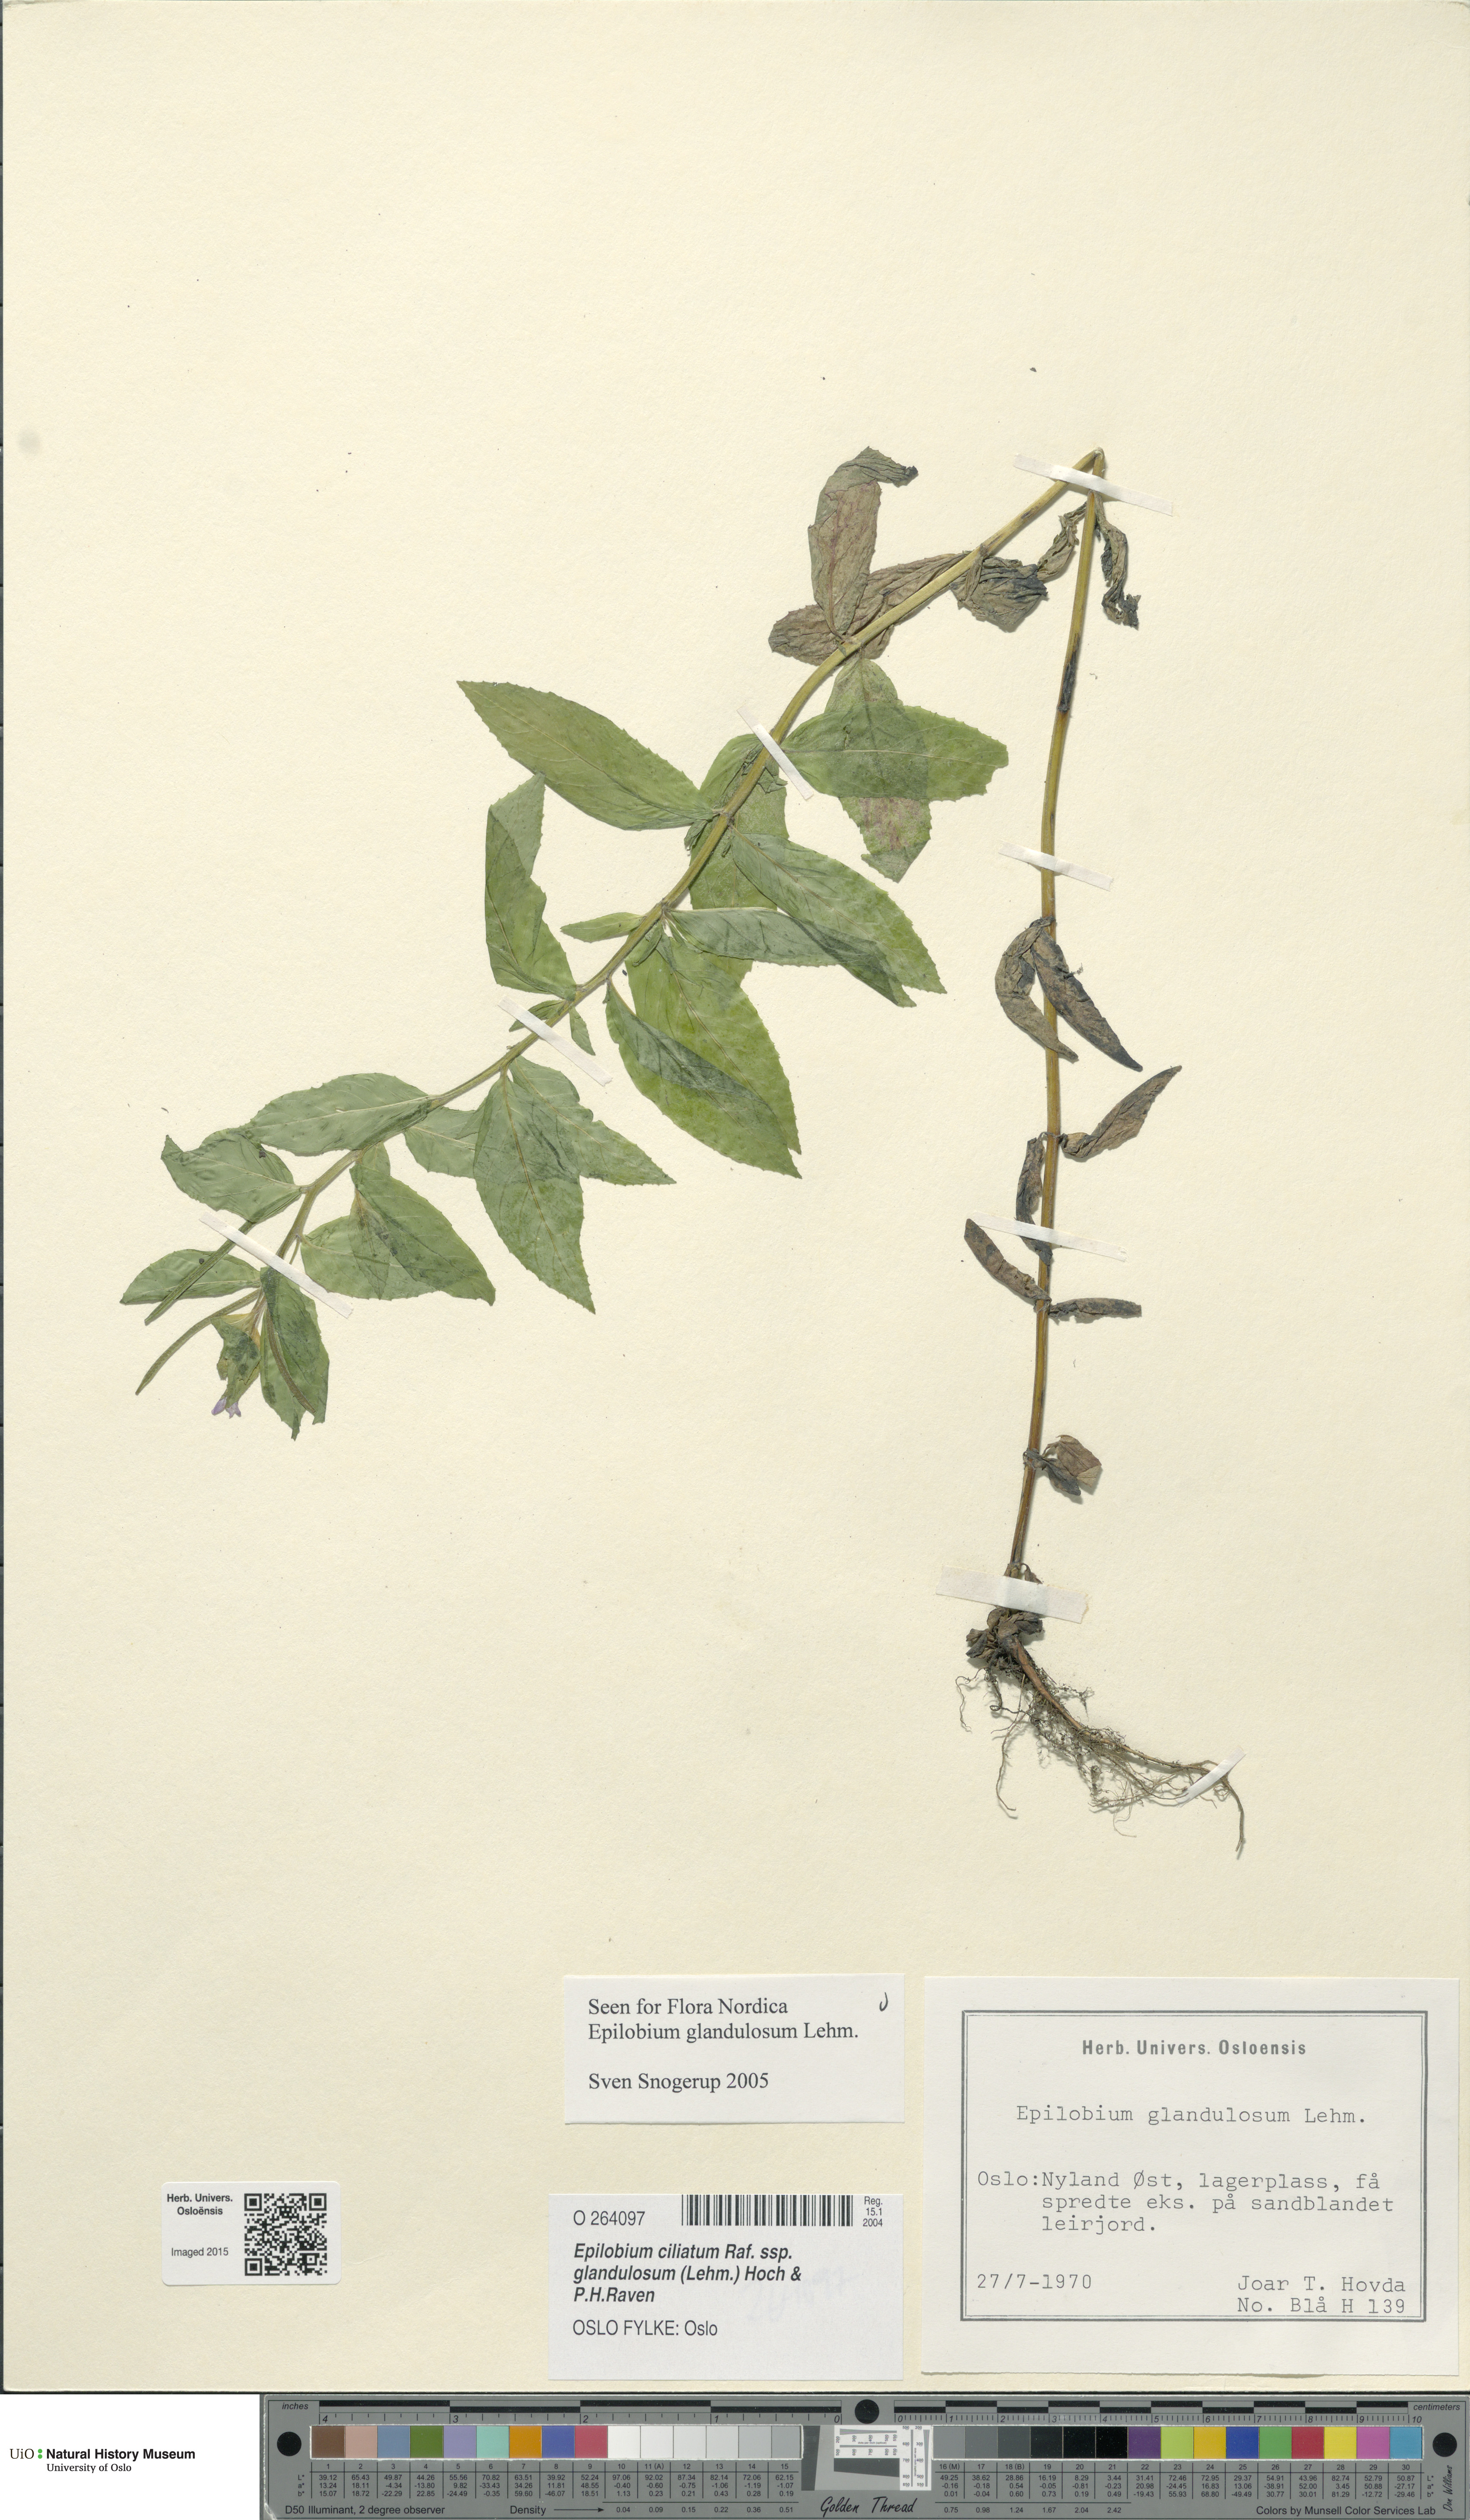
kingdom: Plantae
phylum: Tracheophyta
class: Magnoliopsida
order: Myrtales
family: Onagraceae
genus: Epilobium
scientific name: Epilobium ciliatum
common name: American willowherb
